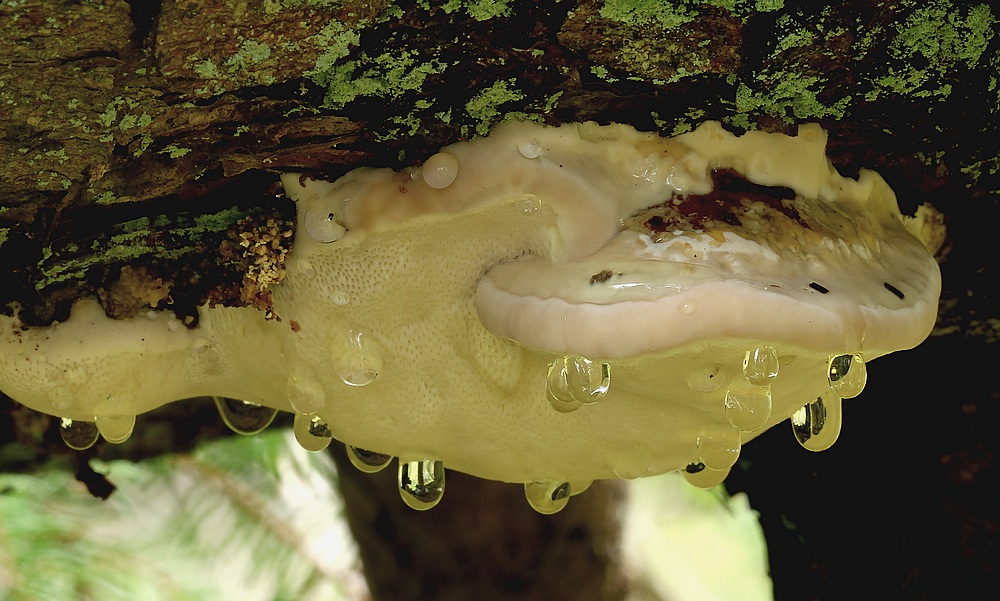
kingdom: Fungi
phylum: Basidiomycota
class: Agaricomycetes
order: Polyporales
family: Fomitopsidaceae
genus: Fomitopsis
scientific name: Fomitopsis pinicola
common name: randbæltet hovporesvamp
